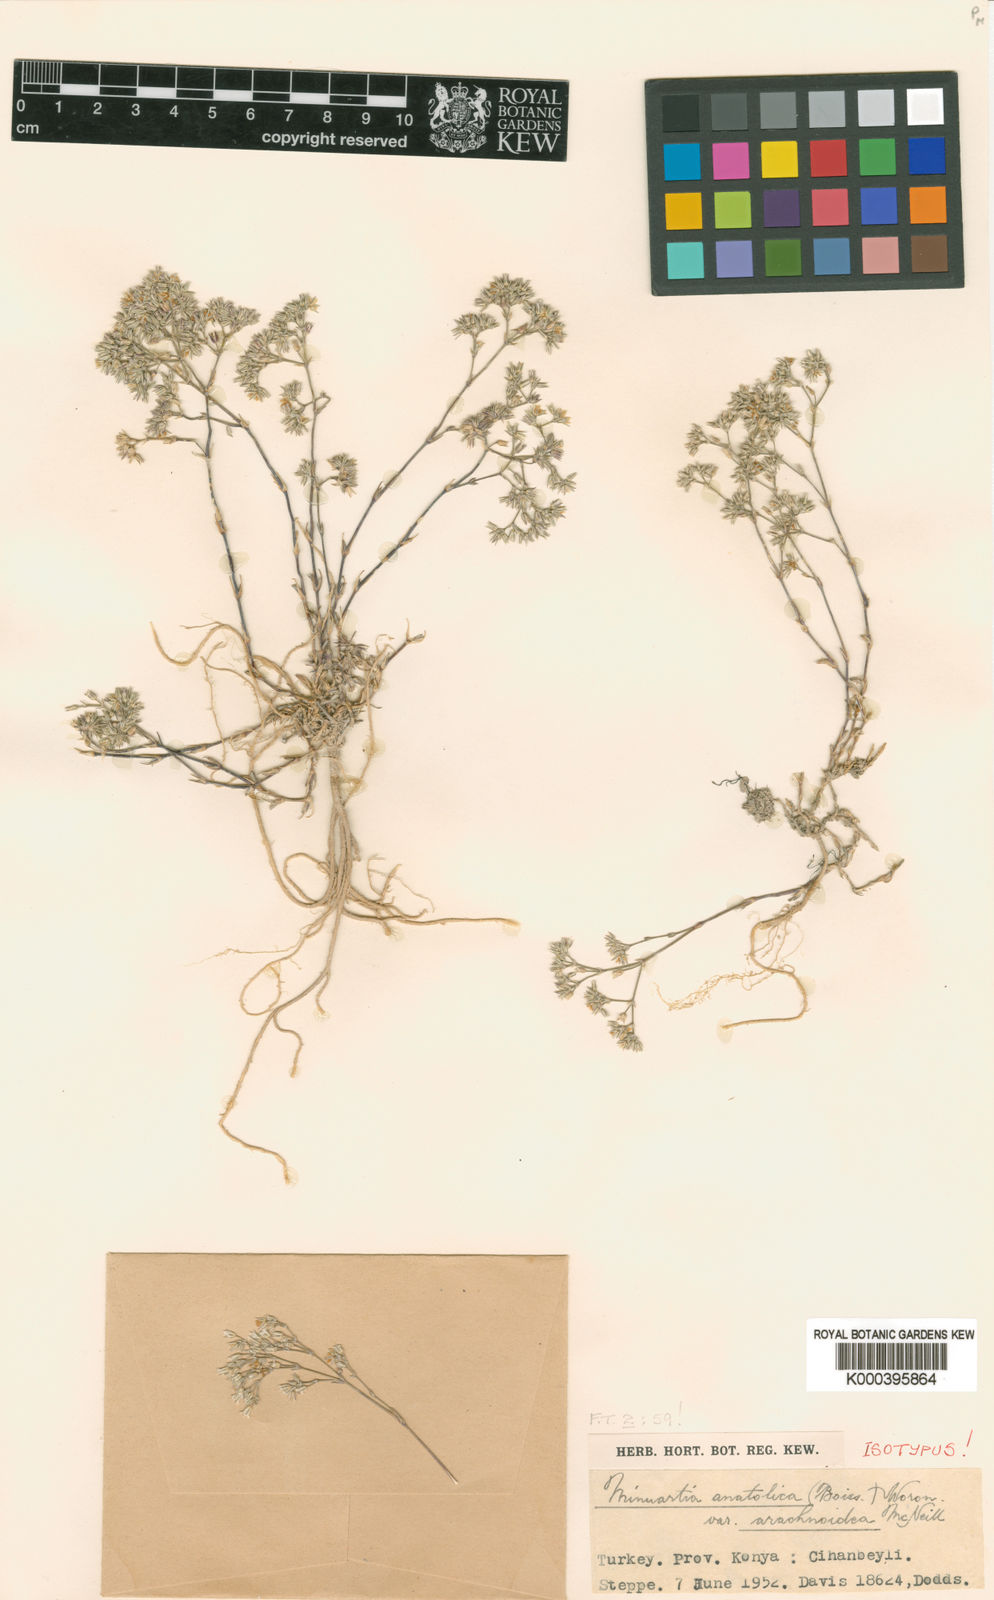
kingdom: Plantae
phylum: Tracheophyta
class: Magnoliopsida
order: Caryophyllales
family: Caryophyllaceae
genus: Minuartia
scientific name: Minuartia
